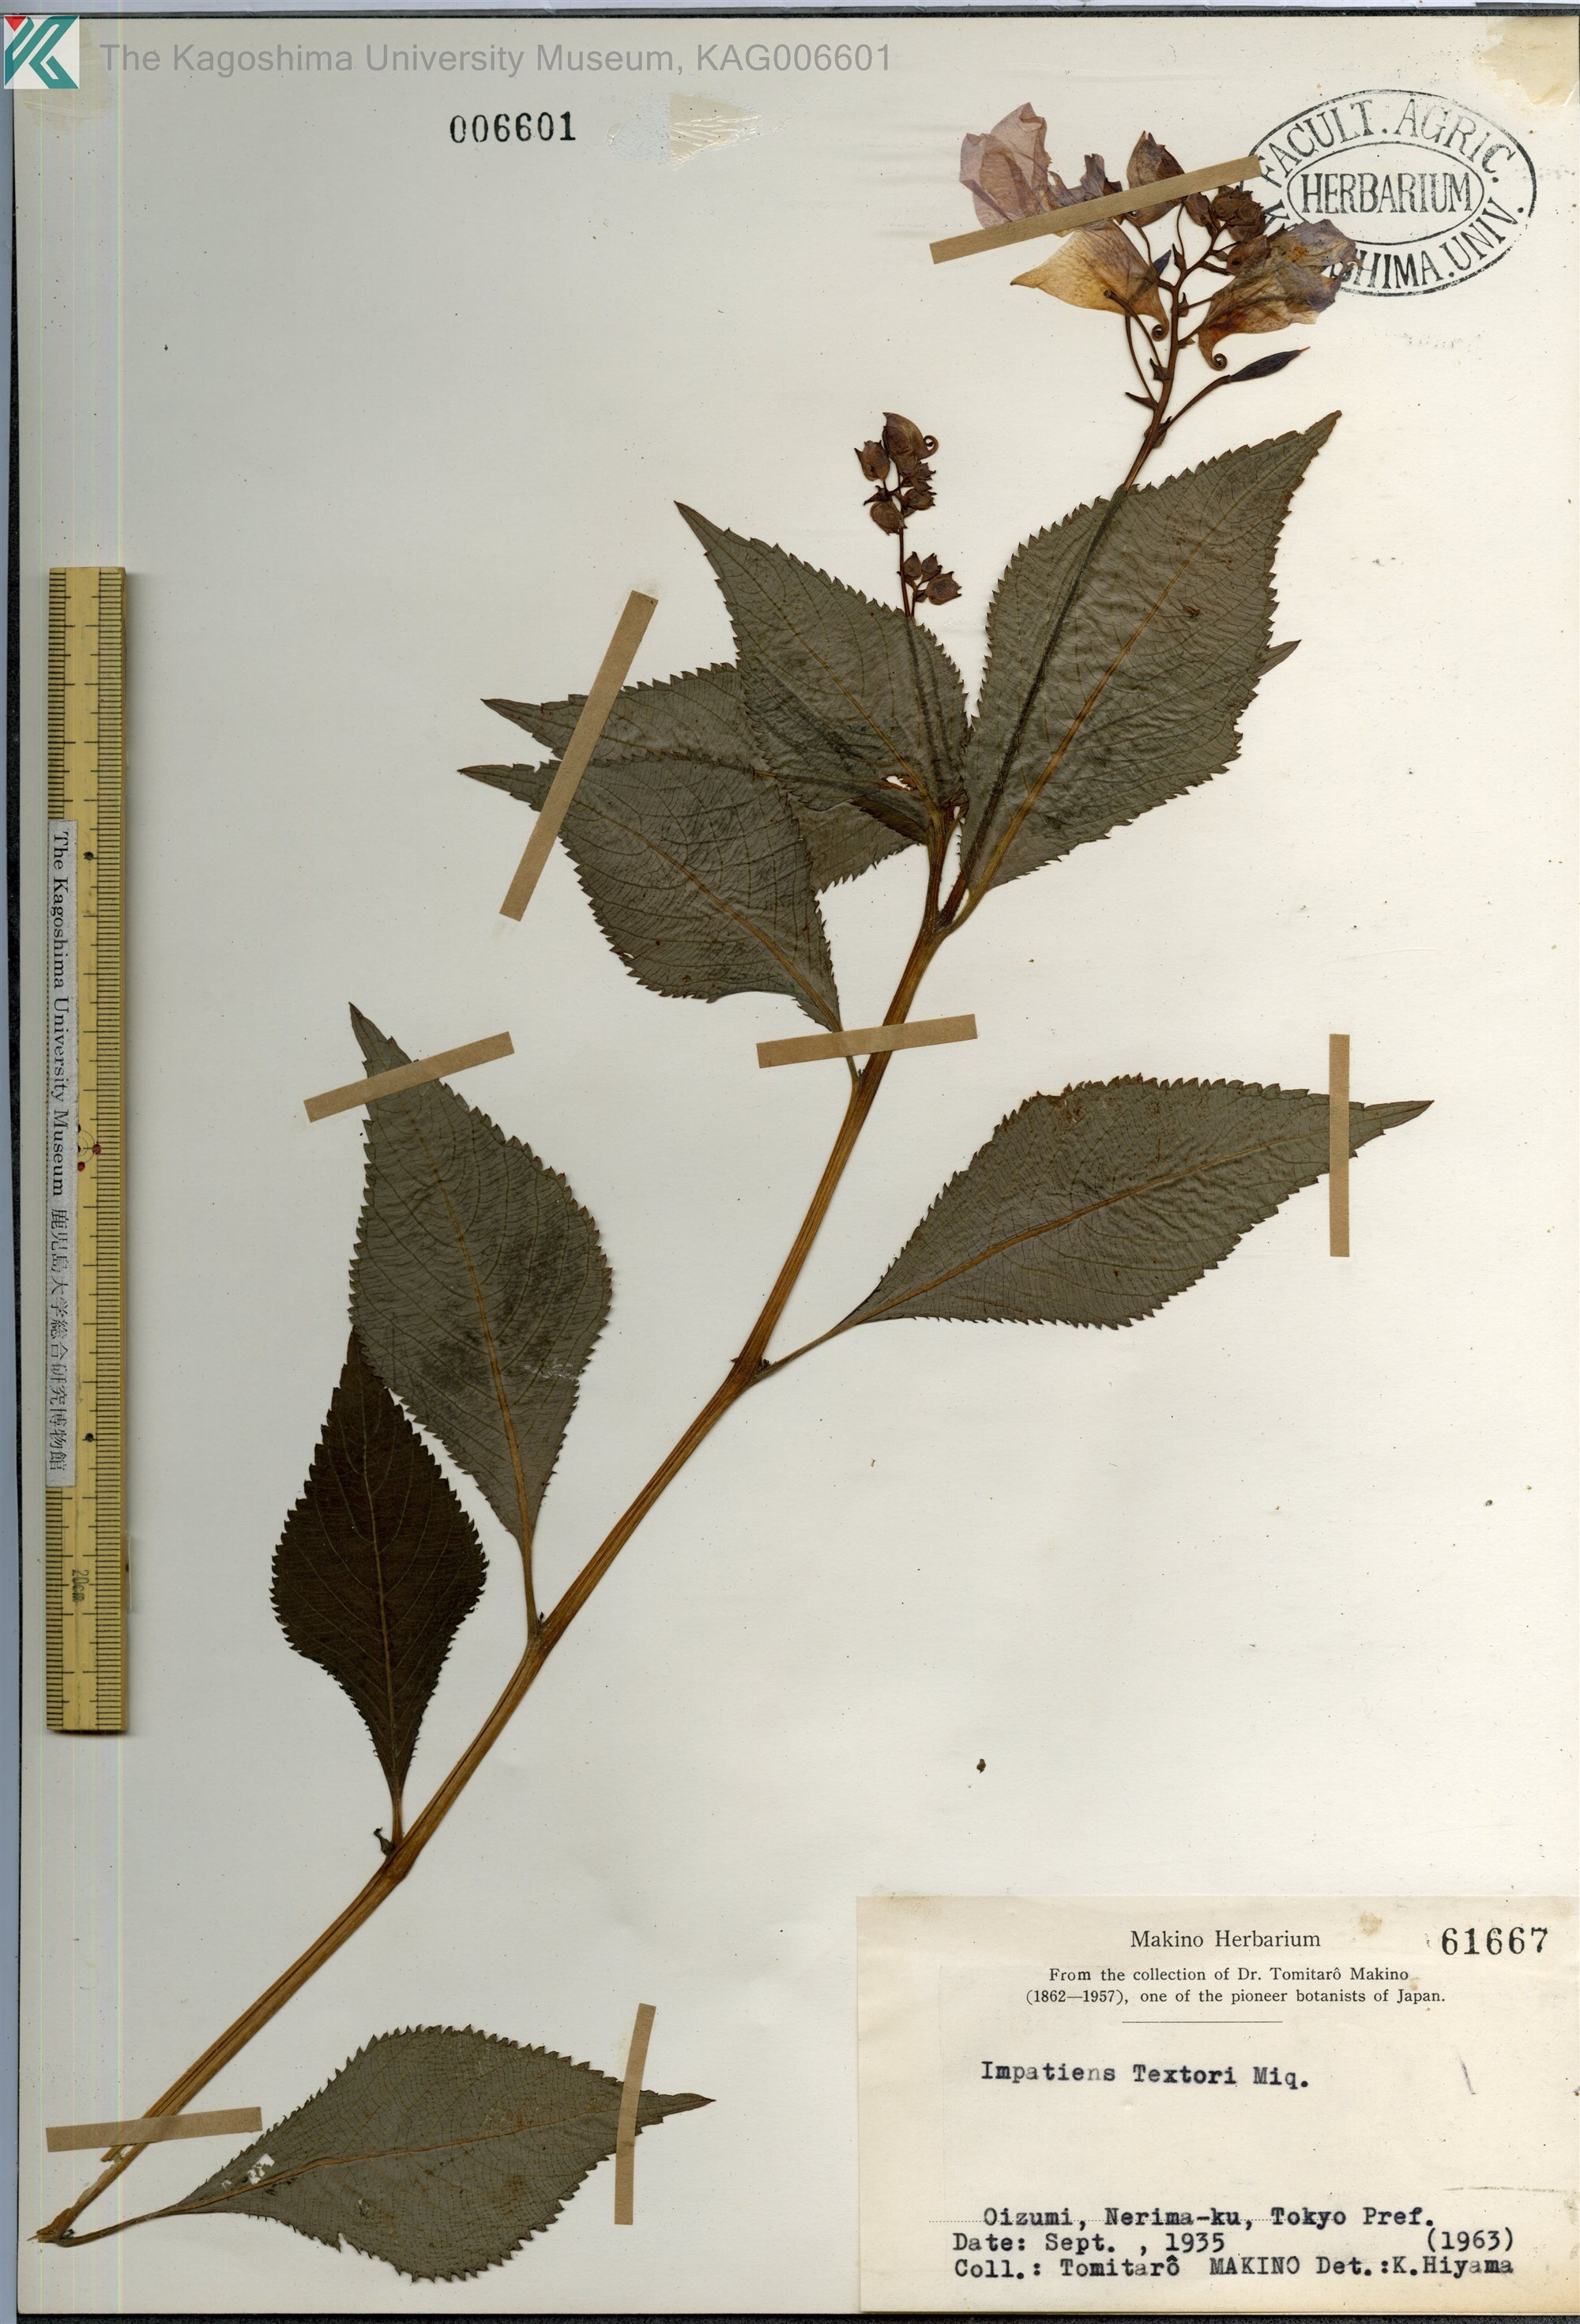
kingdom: Plantae
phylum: Tracheophyta
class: Magnoliopsida
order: Ericales
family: Balsaminaceae
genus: Impatiens
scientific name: Impatiens textorii
